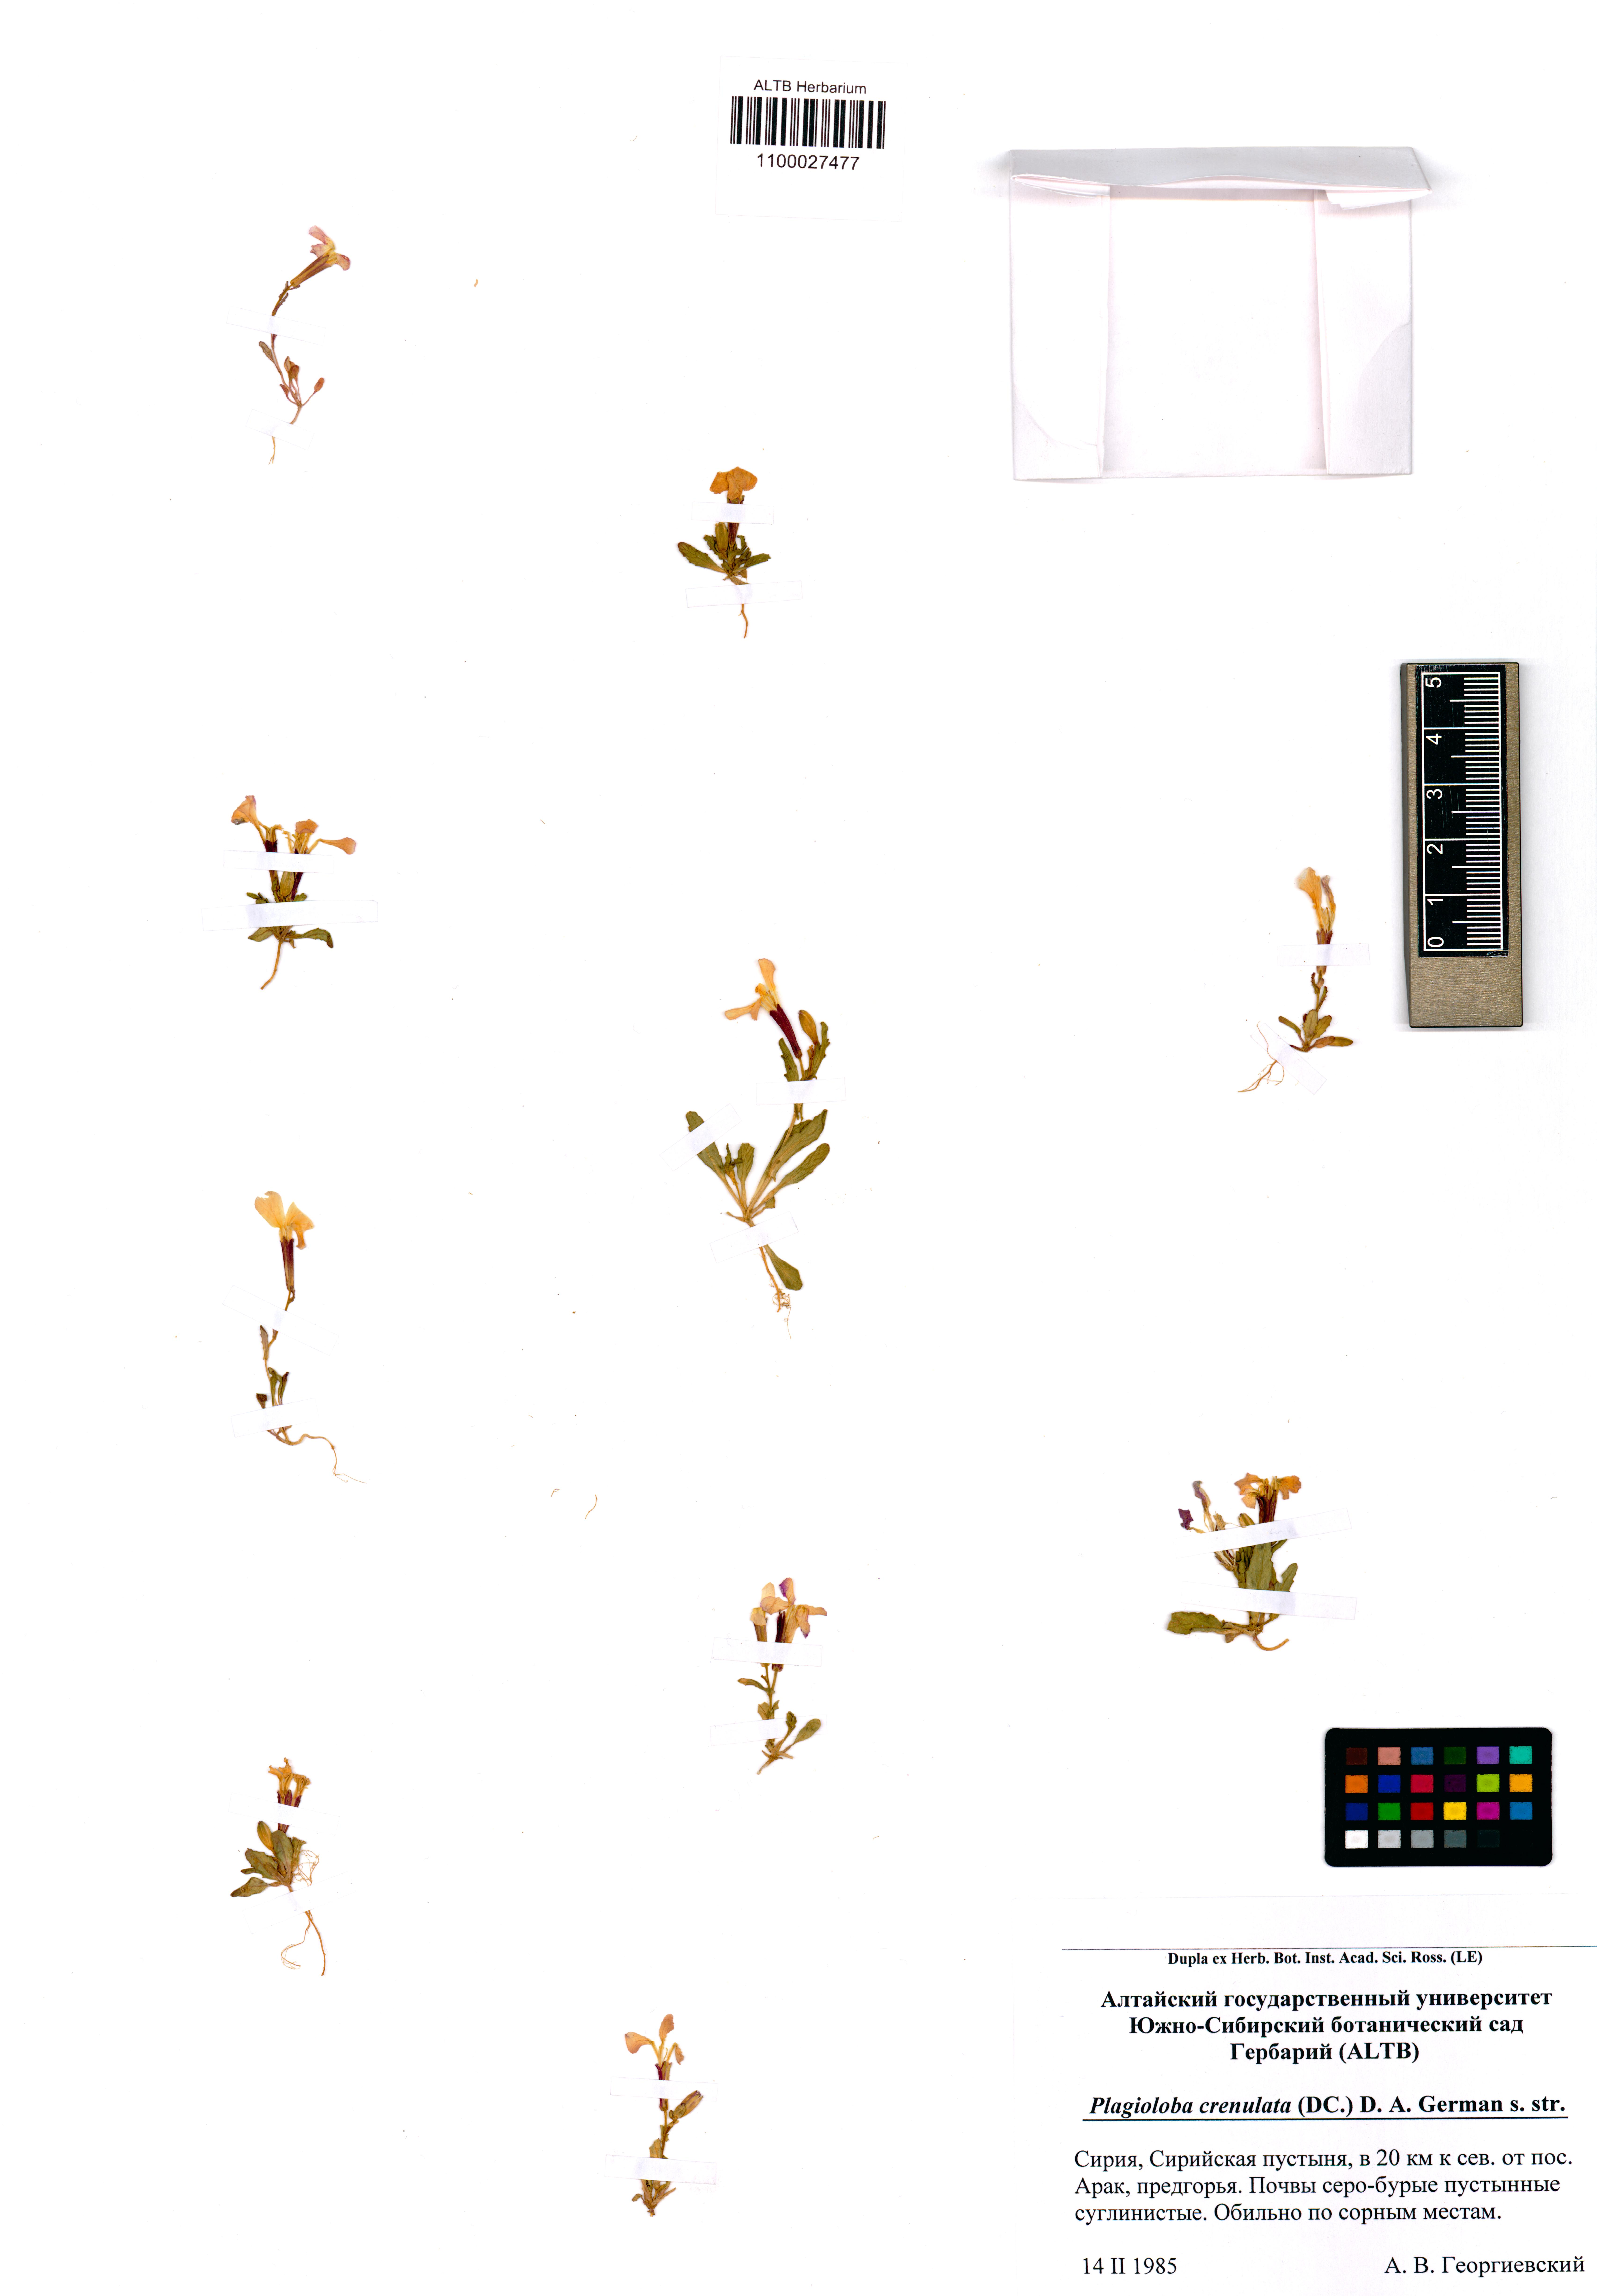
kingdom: Plantae
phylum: Tracheophyta
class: Magnoliopsida
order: Brassicales
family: Brassicaceae
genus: Hesperis
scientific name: Hesperis
